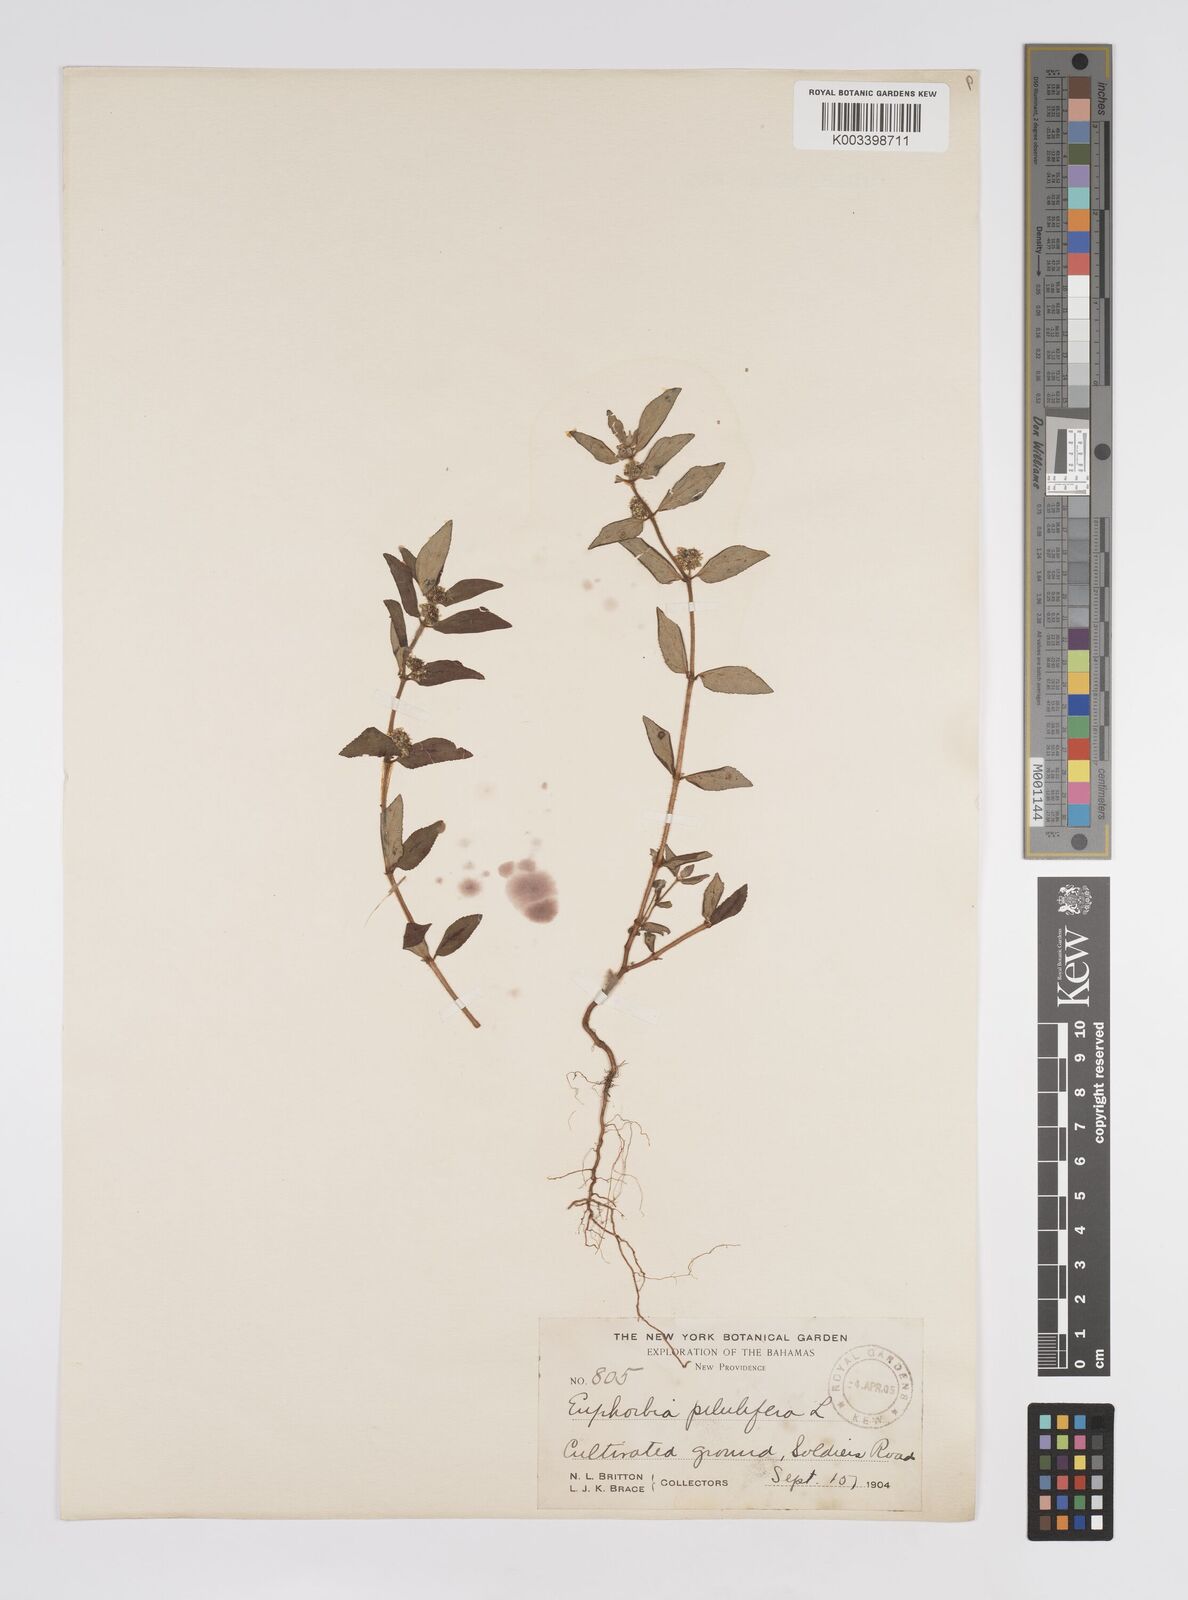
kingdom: Plantae
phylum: Tracheophyta
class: Magnoliopsida
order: Malpighiales
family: Euphorbiaceae
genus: Euphorbia
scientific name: Euphorbia hirta
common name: Pillpod sandmat
